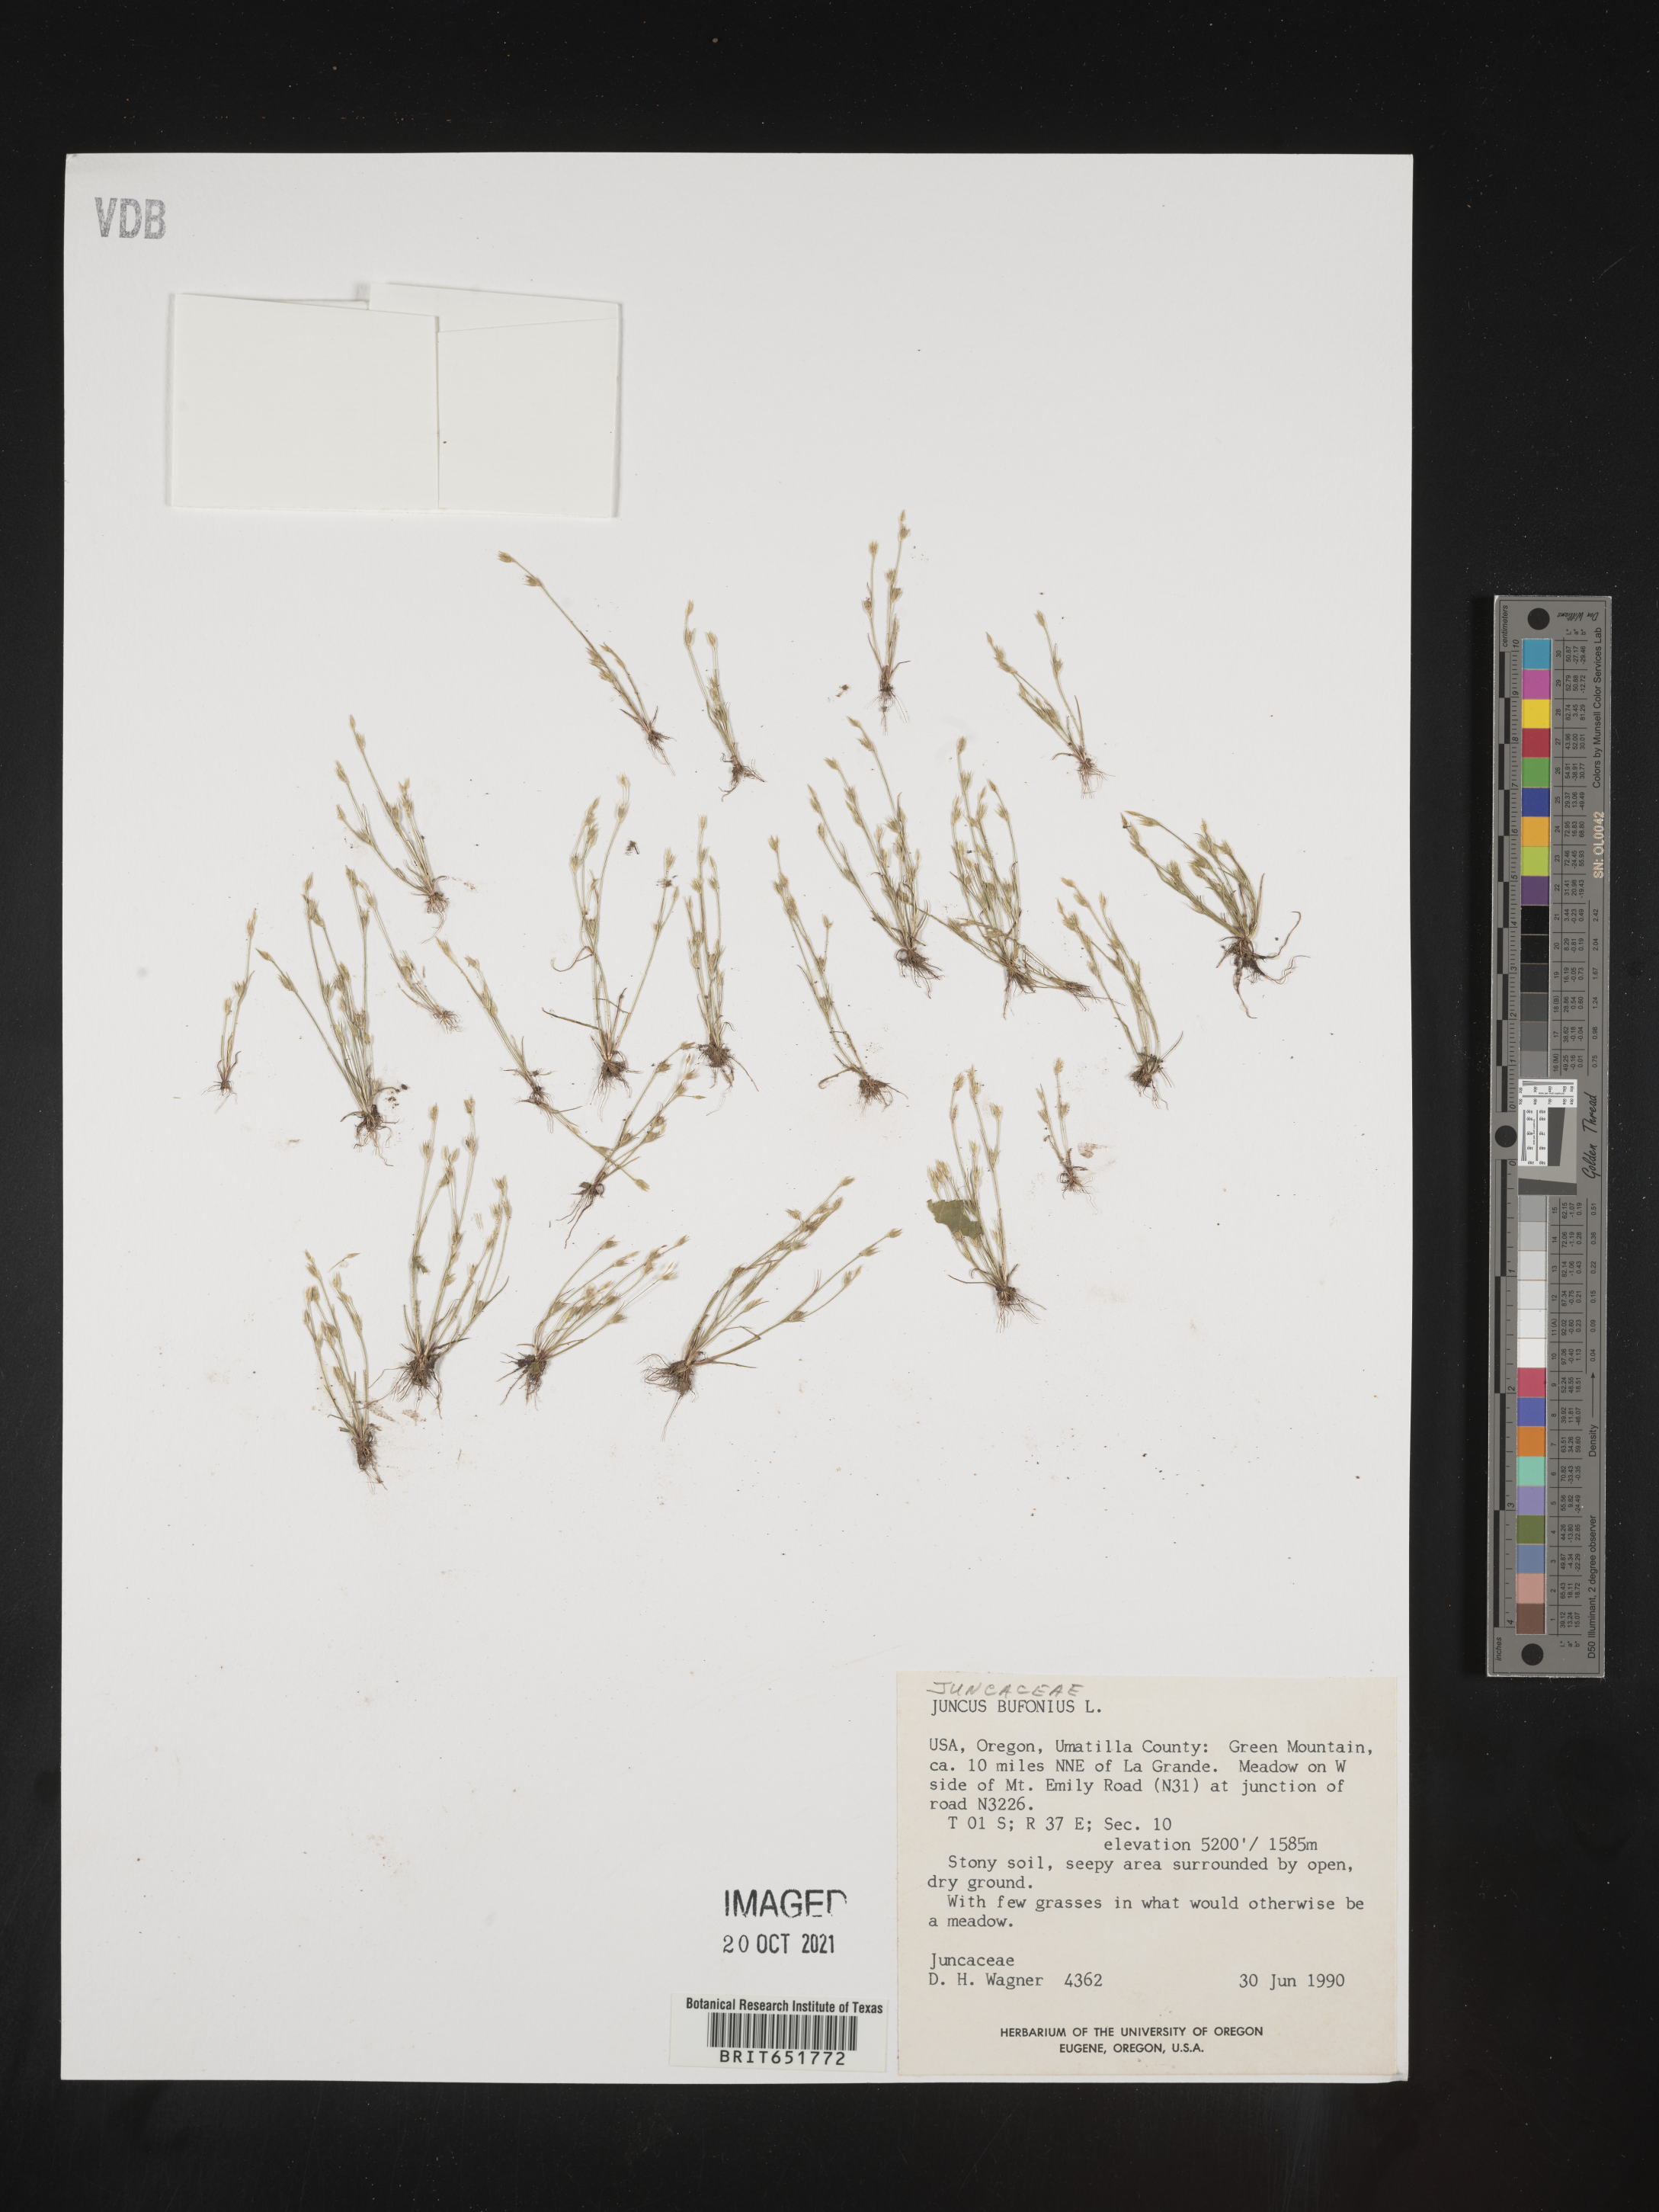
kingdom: Plantae
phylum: Tracheophyta
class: Liliopsida
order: Poales
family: Juncaceae
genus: Juncus
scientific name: Juncus bufonius
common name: Toad rush
